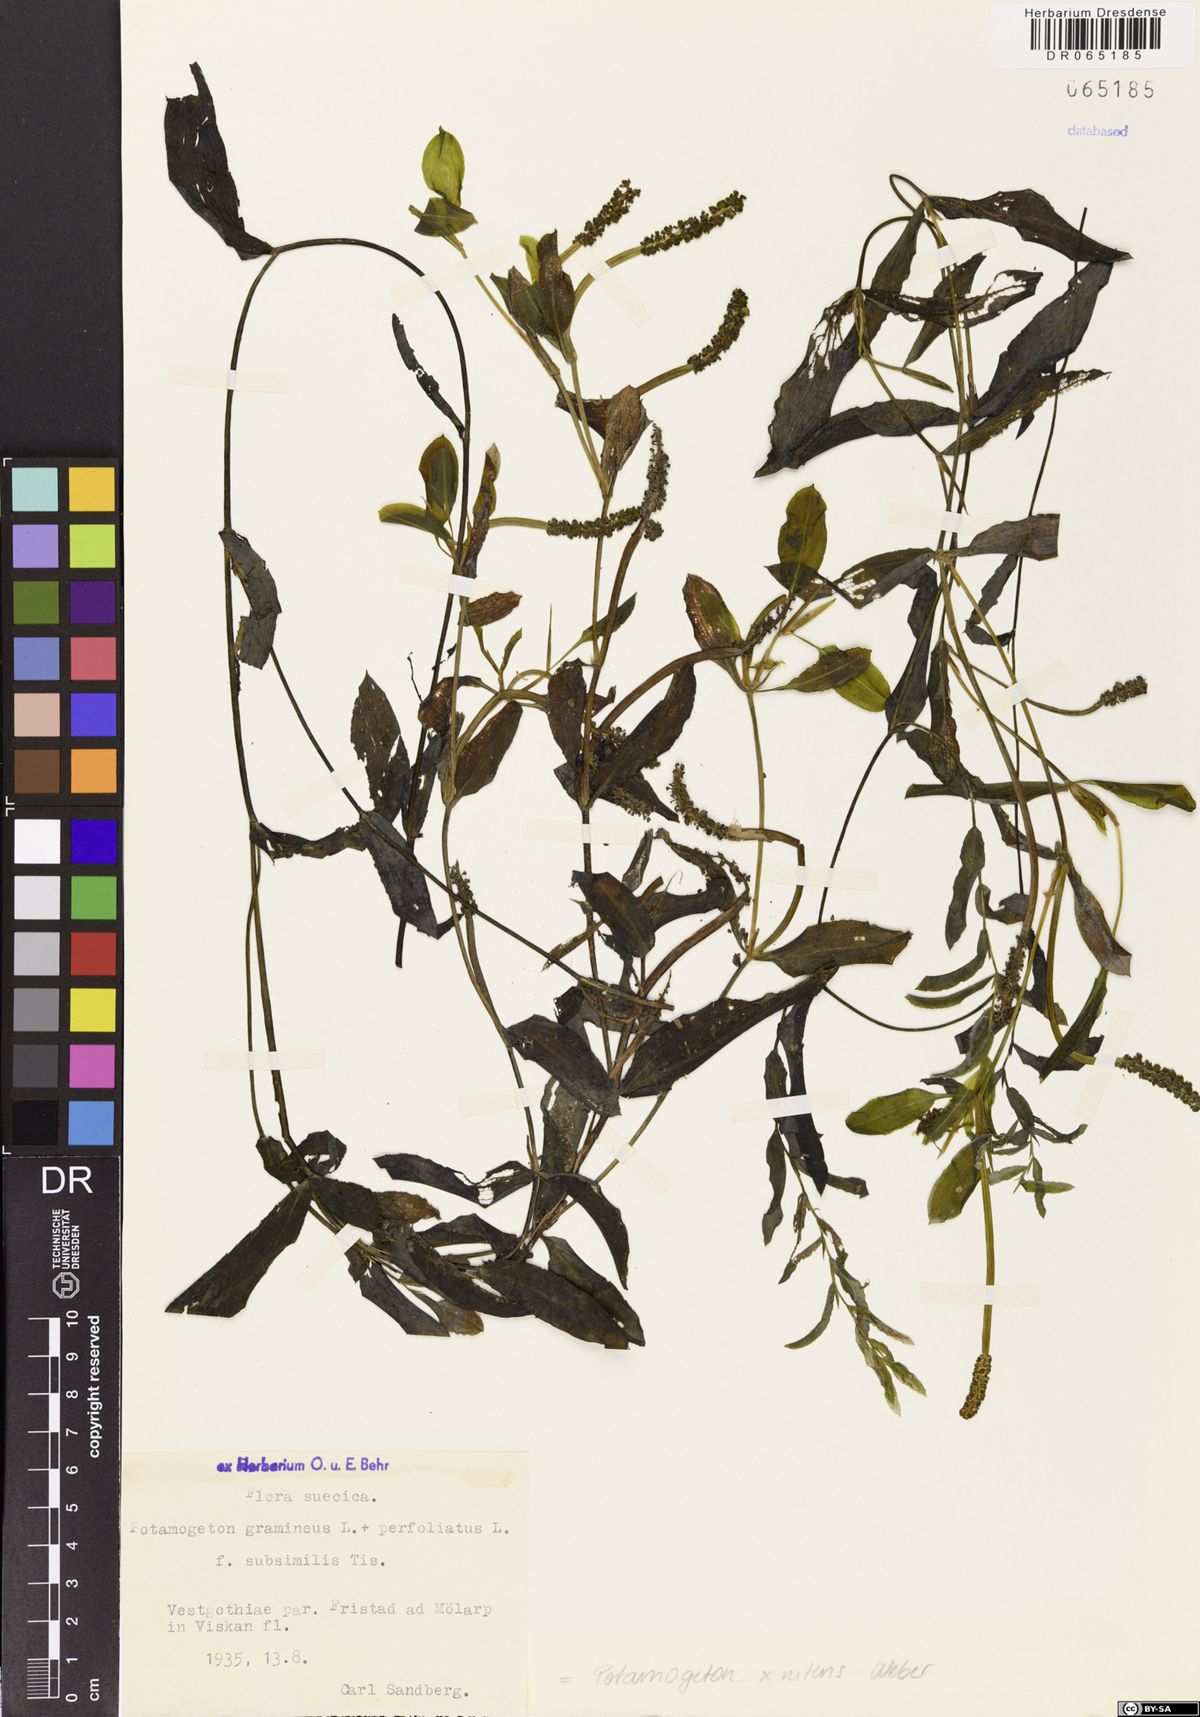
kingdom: Plantae
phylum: Tracheophyta
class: Liliopsida
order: Alismatales
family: Potamogetonaceae
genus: Potamogeton
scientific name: Potamogeton nitens
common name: Pondweed
